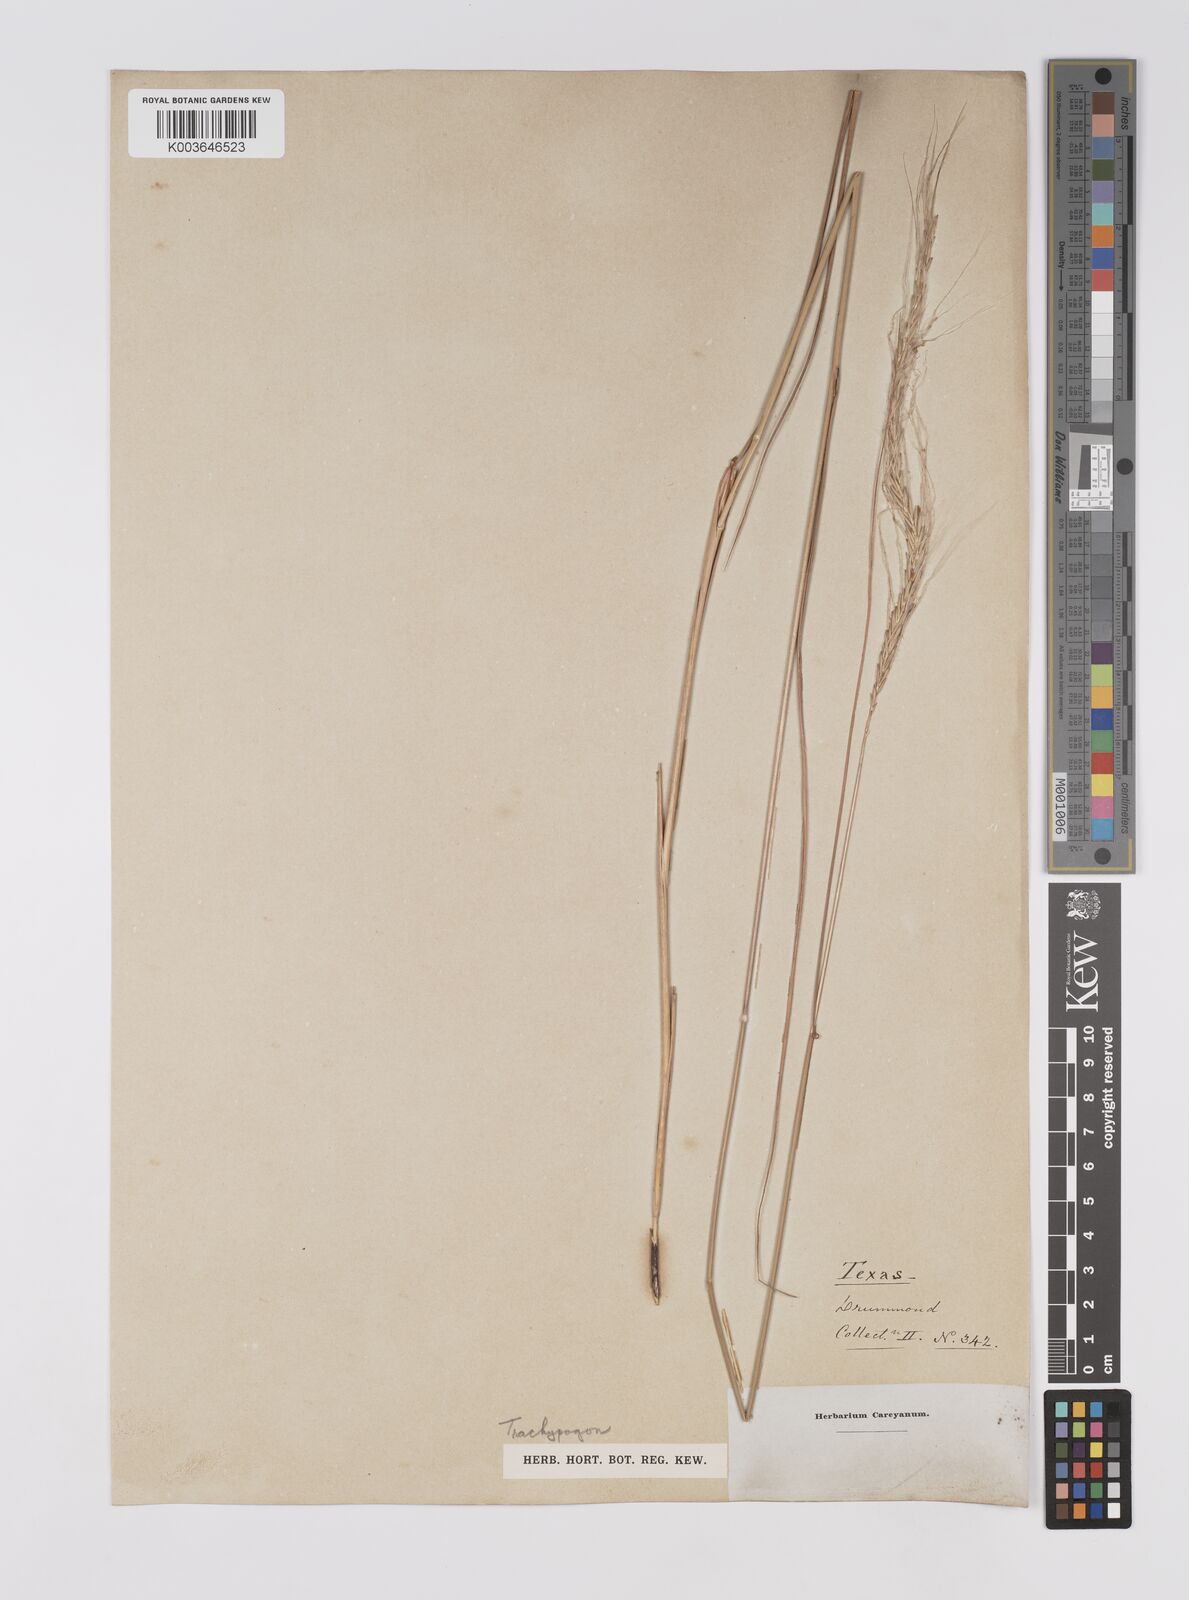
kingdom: Plantae
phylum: Tracheophyta
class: Liliopsida
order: Poales
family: Poaceae
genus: Trachypogon
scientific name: Trachypogon spicatus
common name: Crinkle-awn
